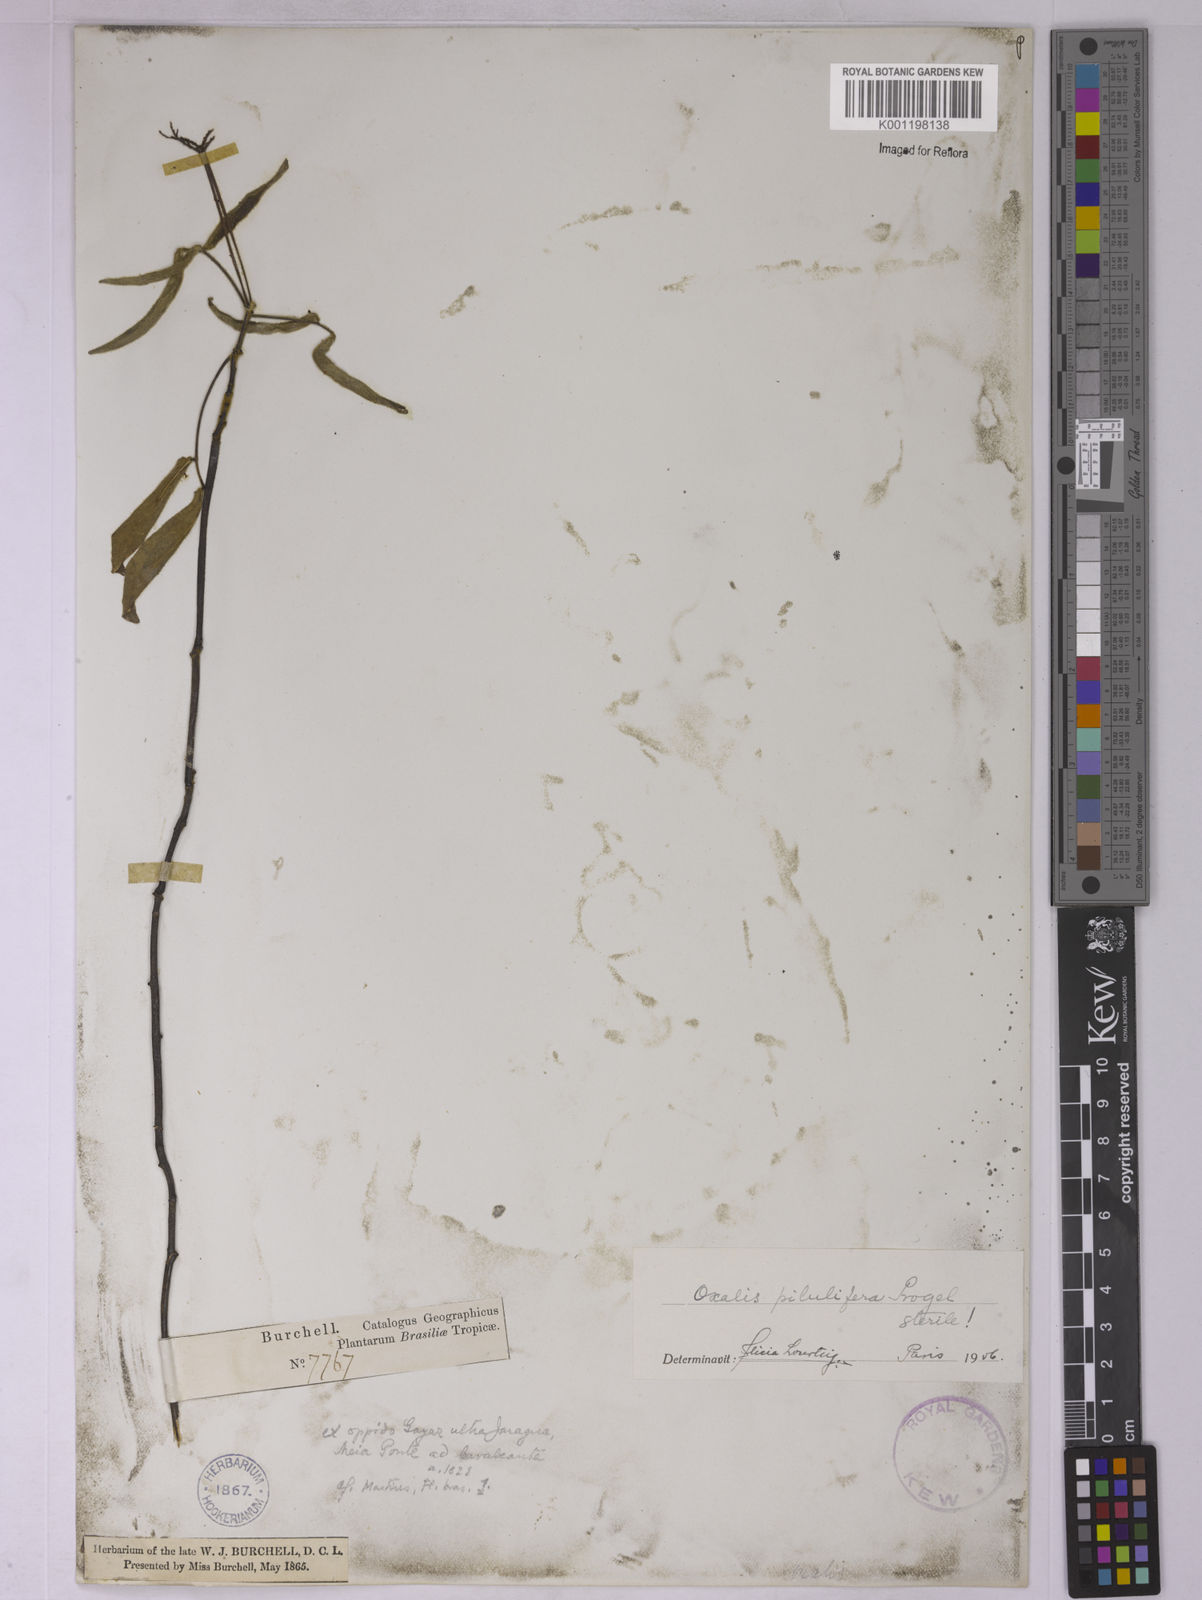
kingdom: Plantae
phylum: Tracheophyta
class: Magnoliopsida
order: Oxalidales
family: Oxalidaceae
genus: Oxalis
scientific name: Oxalis pilulifera
